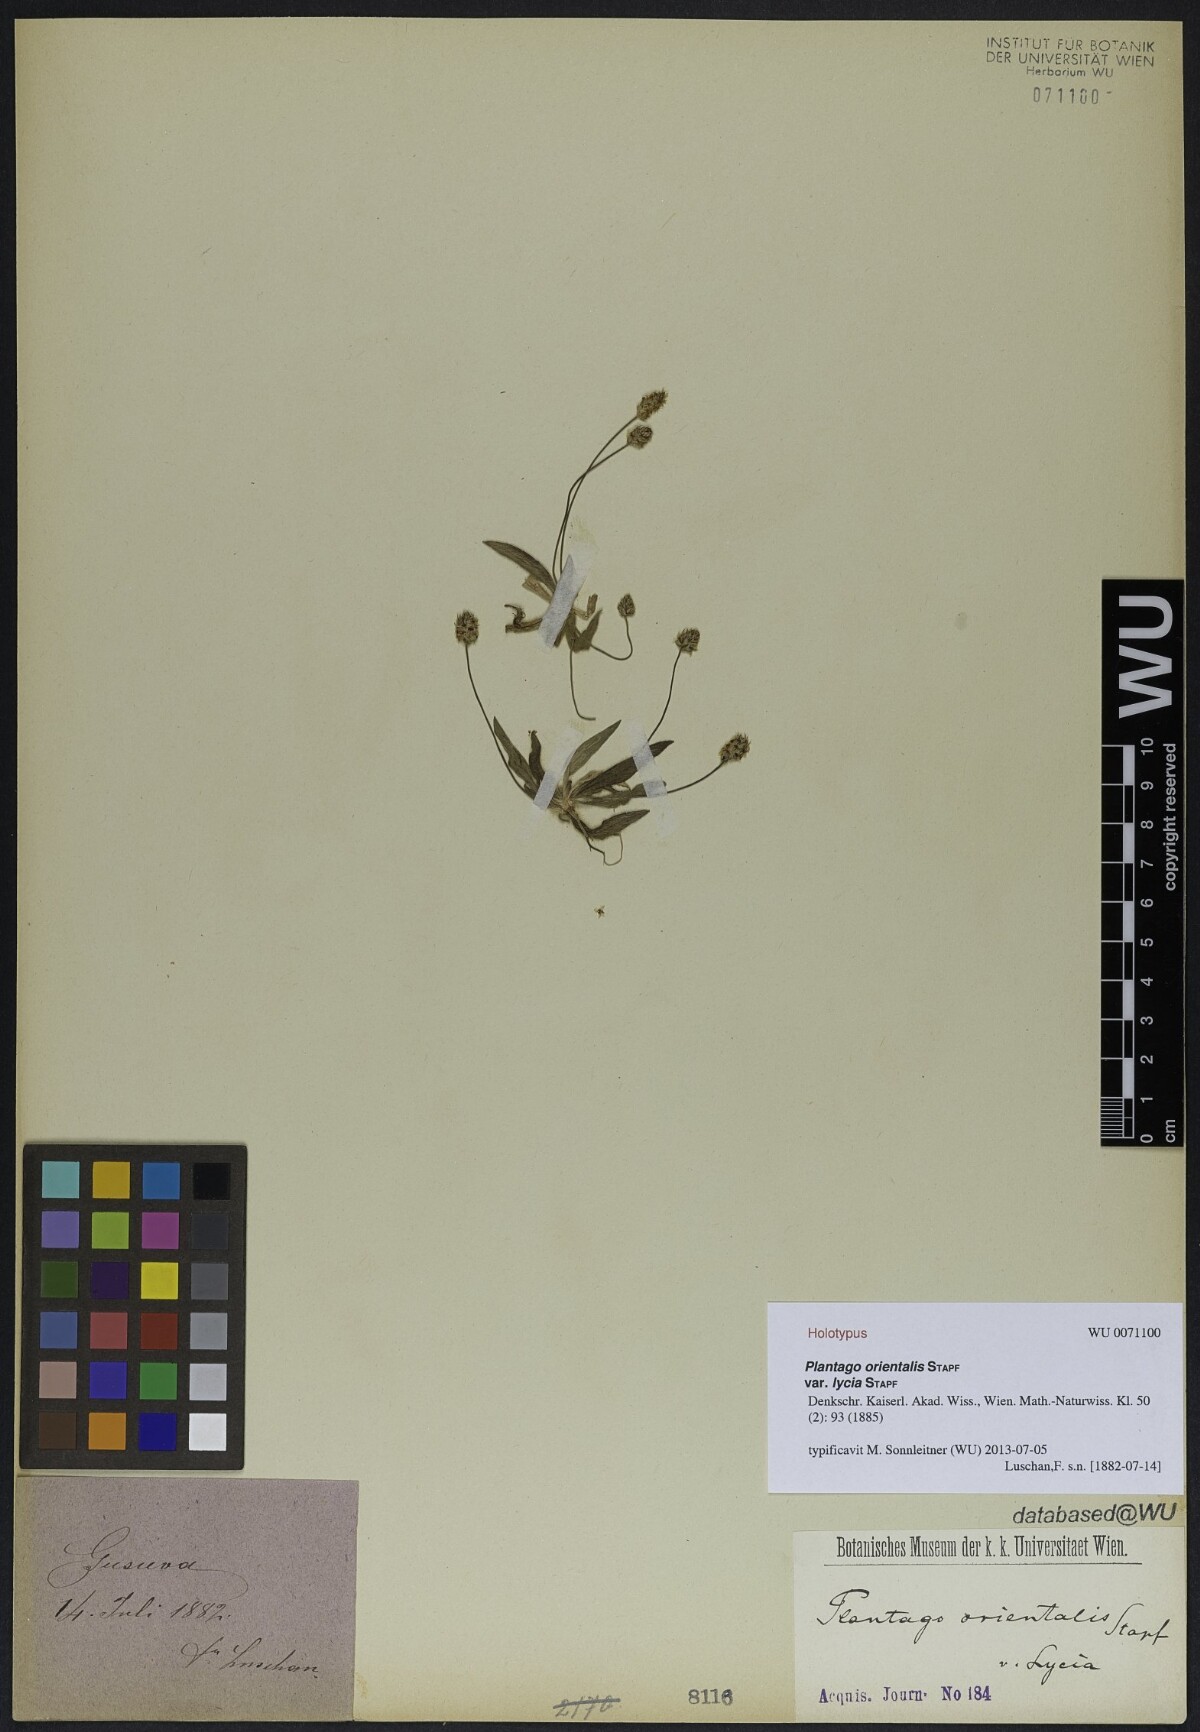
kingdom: Plantae
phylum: Tracheophyta
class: Magnoliopsida
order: Lamiales
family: Plantaginaceae
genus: Plantago
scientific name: Plantago lanceolata
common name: Ribwort plantain
